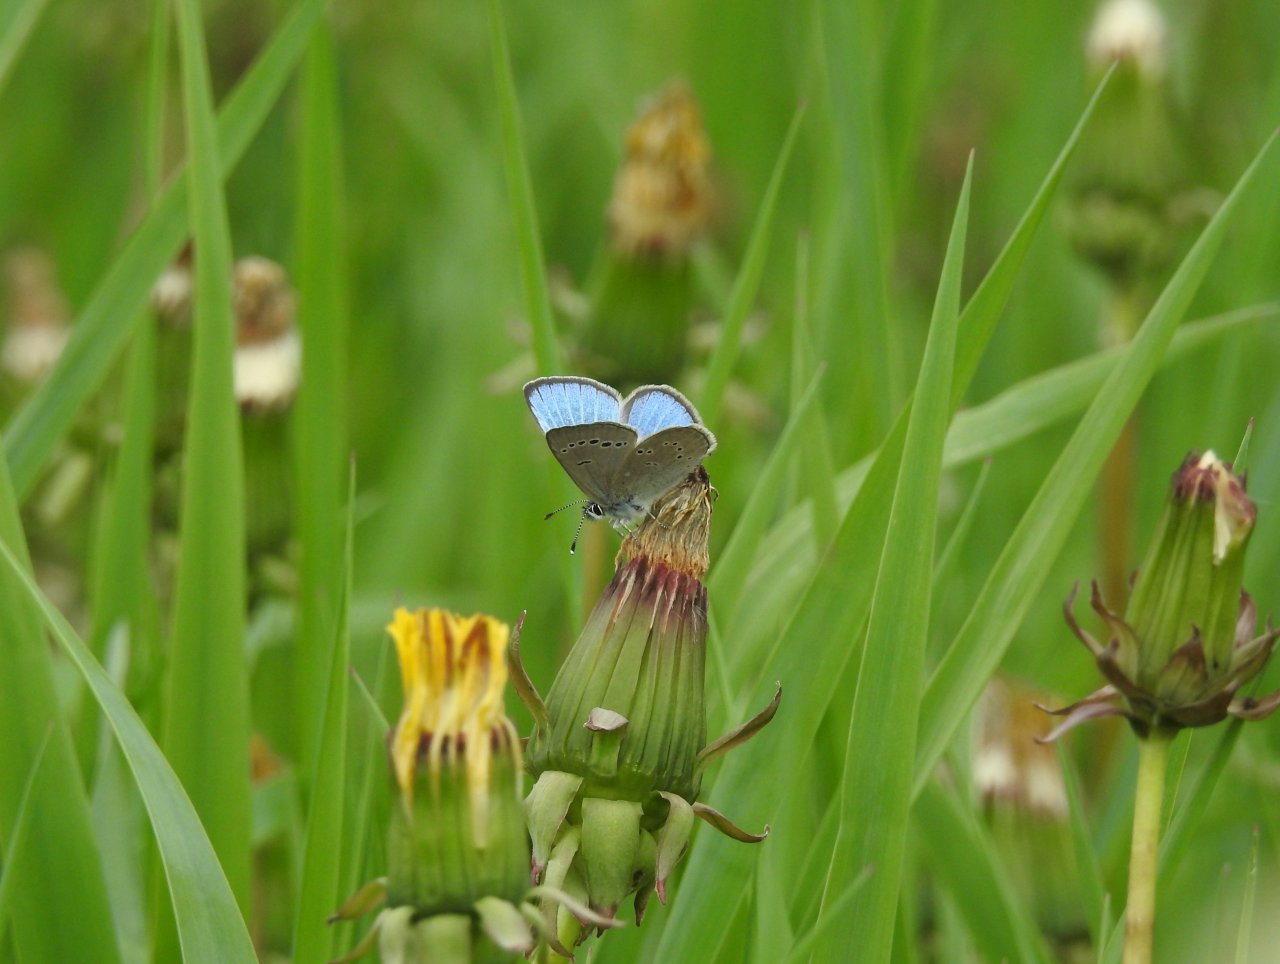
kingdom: Animalia
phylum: Arthropoda
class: Insecta
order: Lepidoptera
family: Lycaenidae
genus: Glaucopsyche
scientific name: Glaucopsyche lygdamus
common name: Silvery Blue
